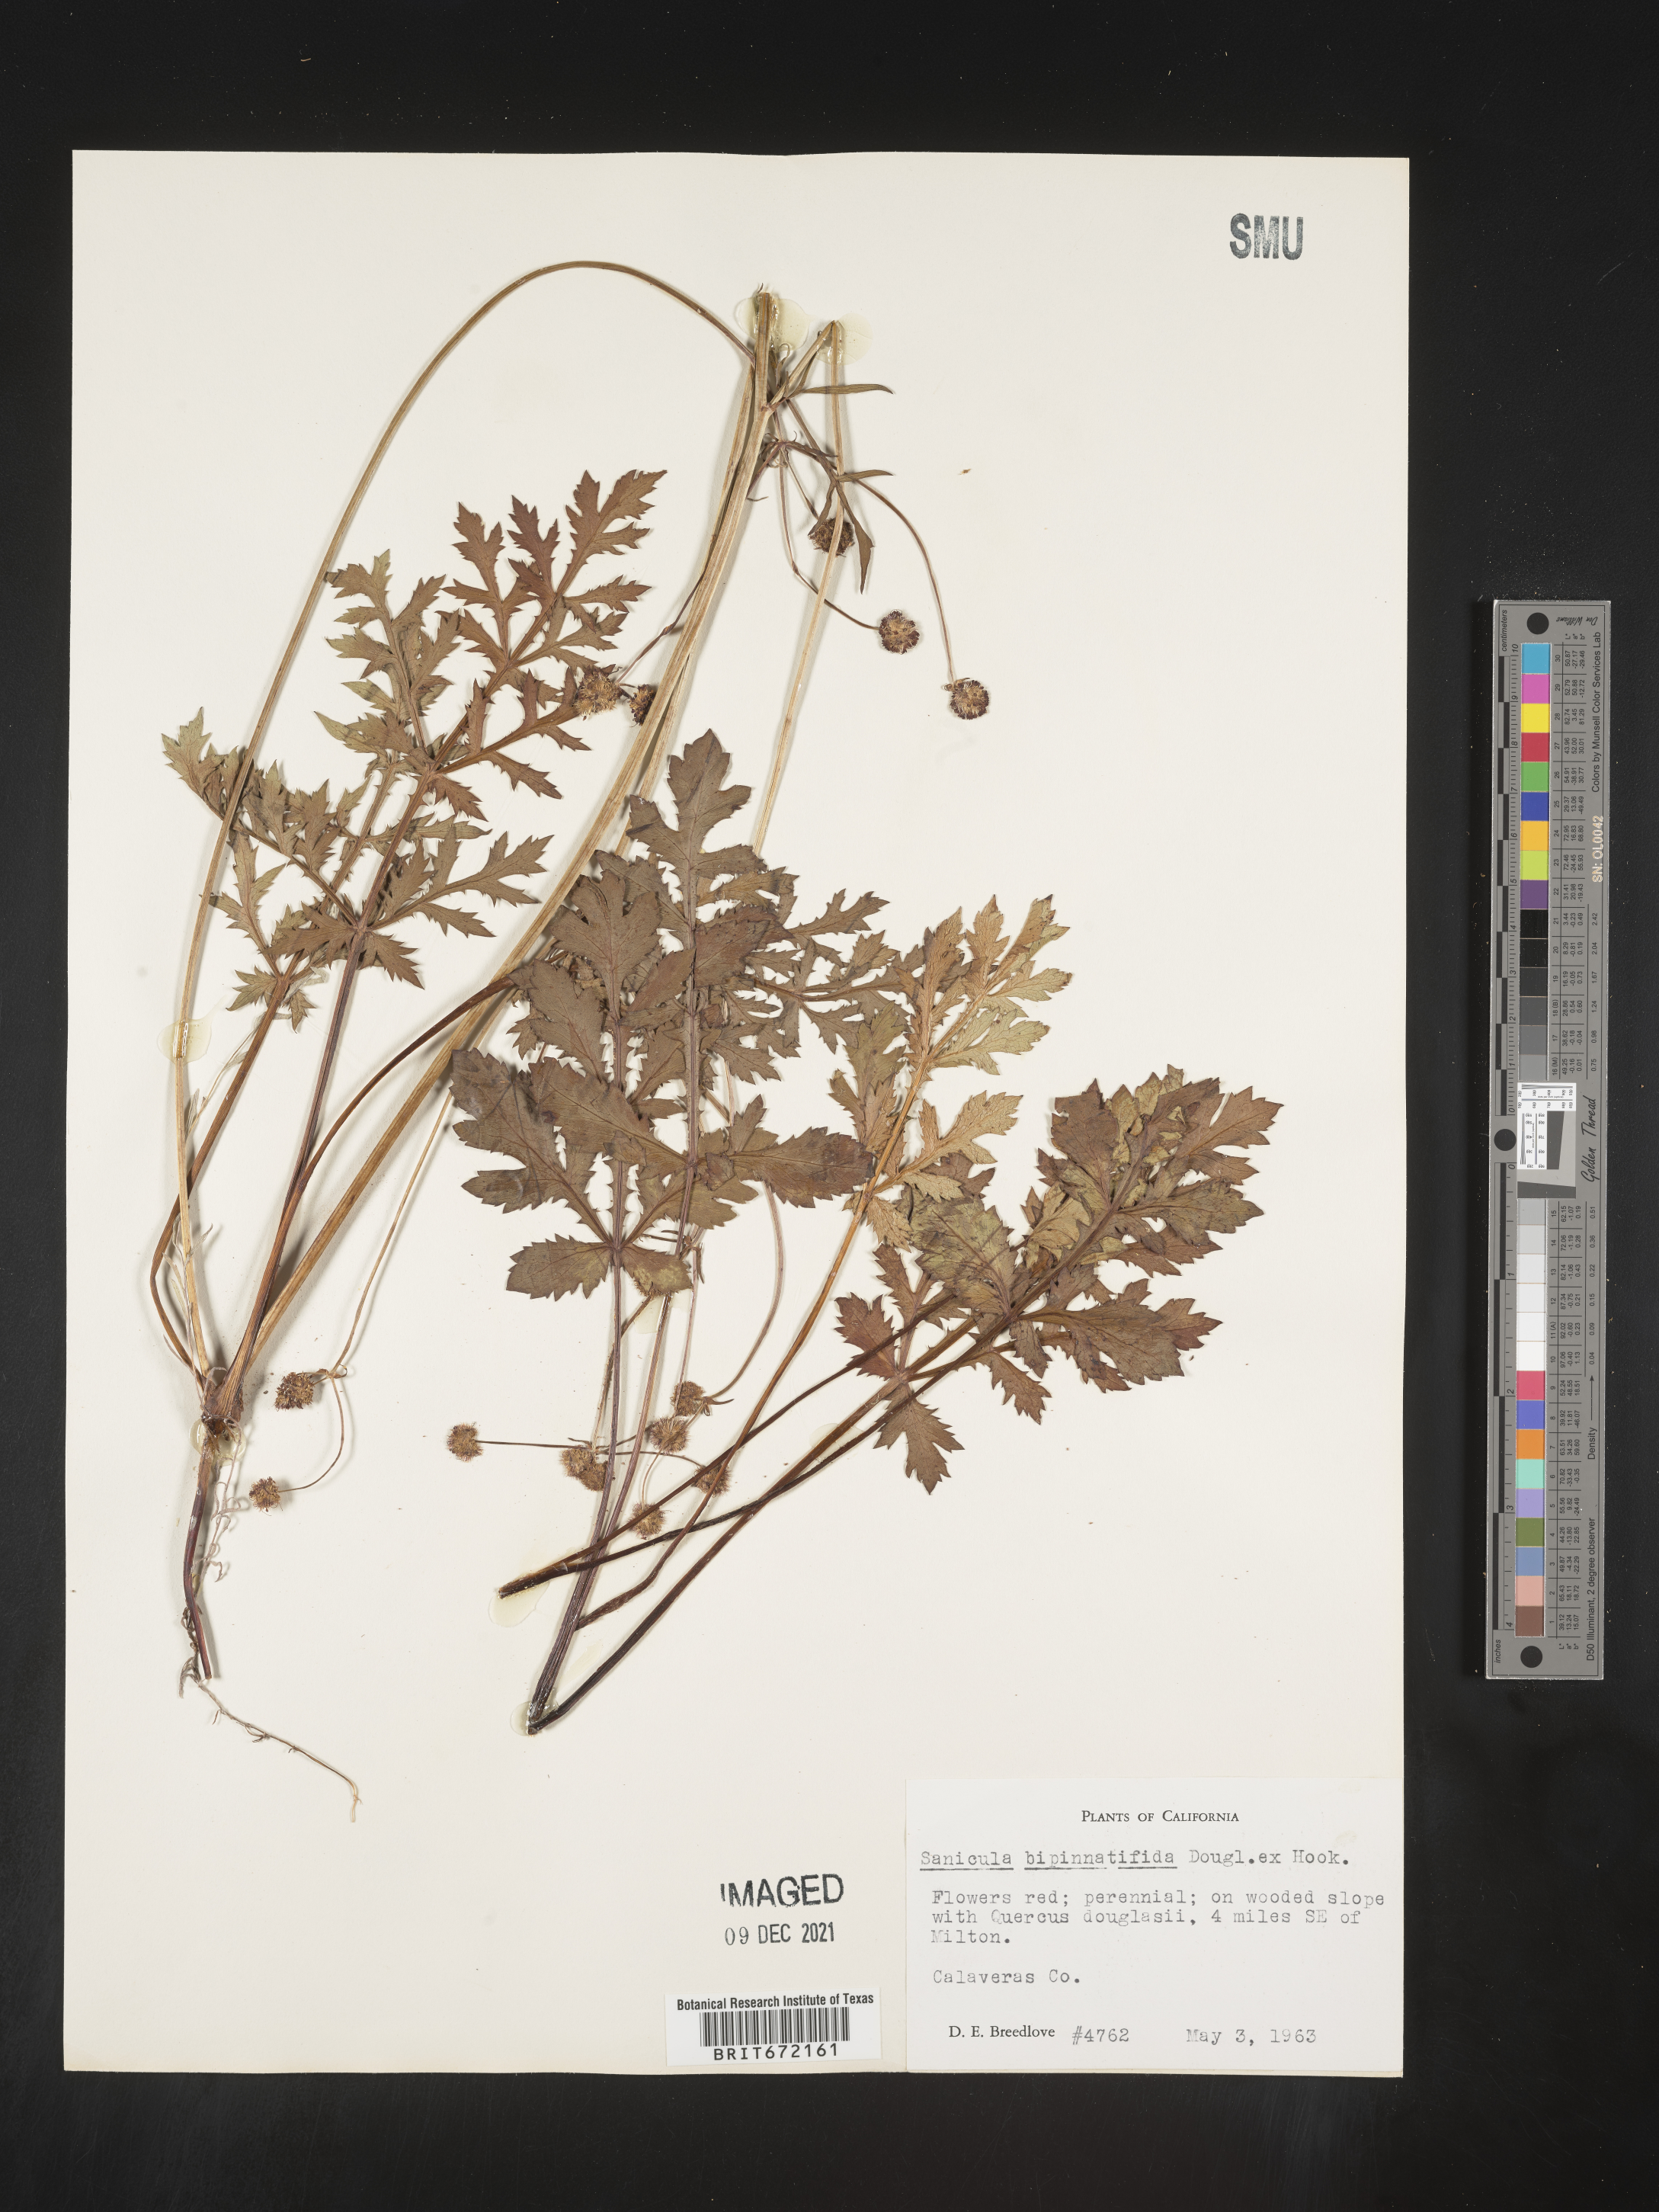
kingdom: Plantae
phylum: Tracheophyta
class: Magnoliopsida
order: Apiales
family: Apiaceae
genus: Sanicula
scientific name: Sanicula
